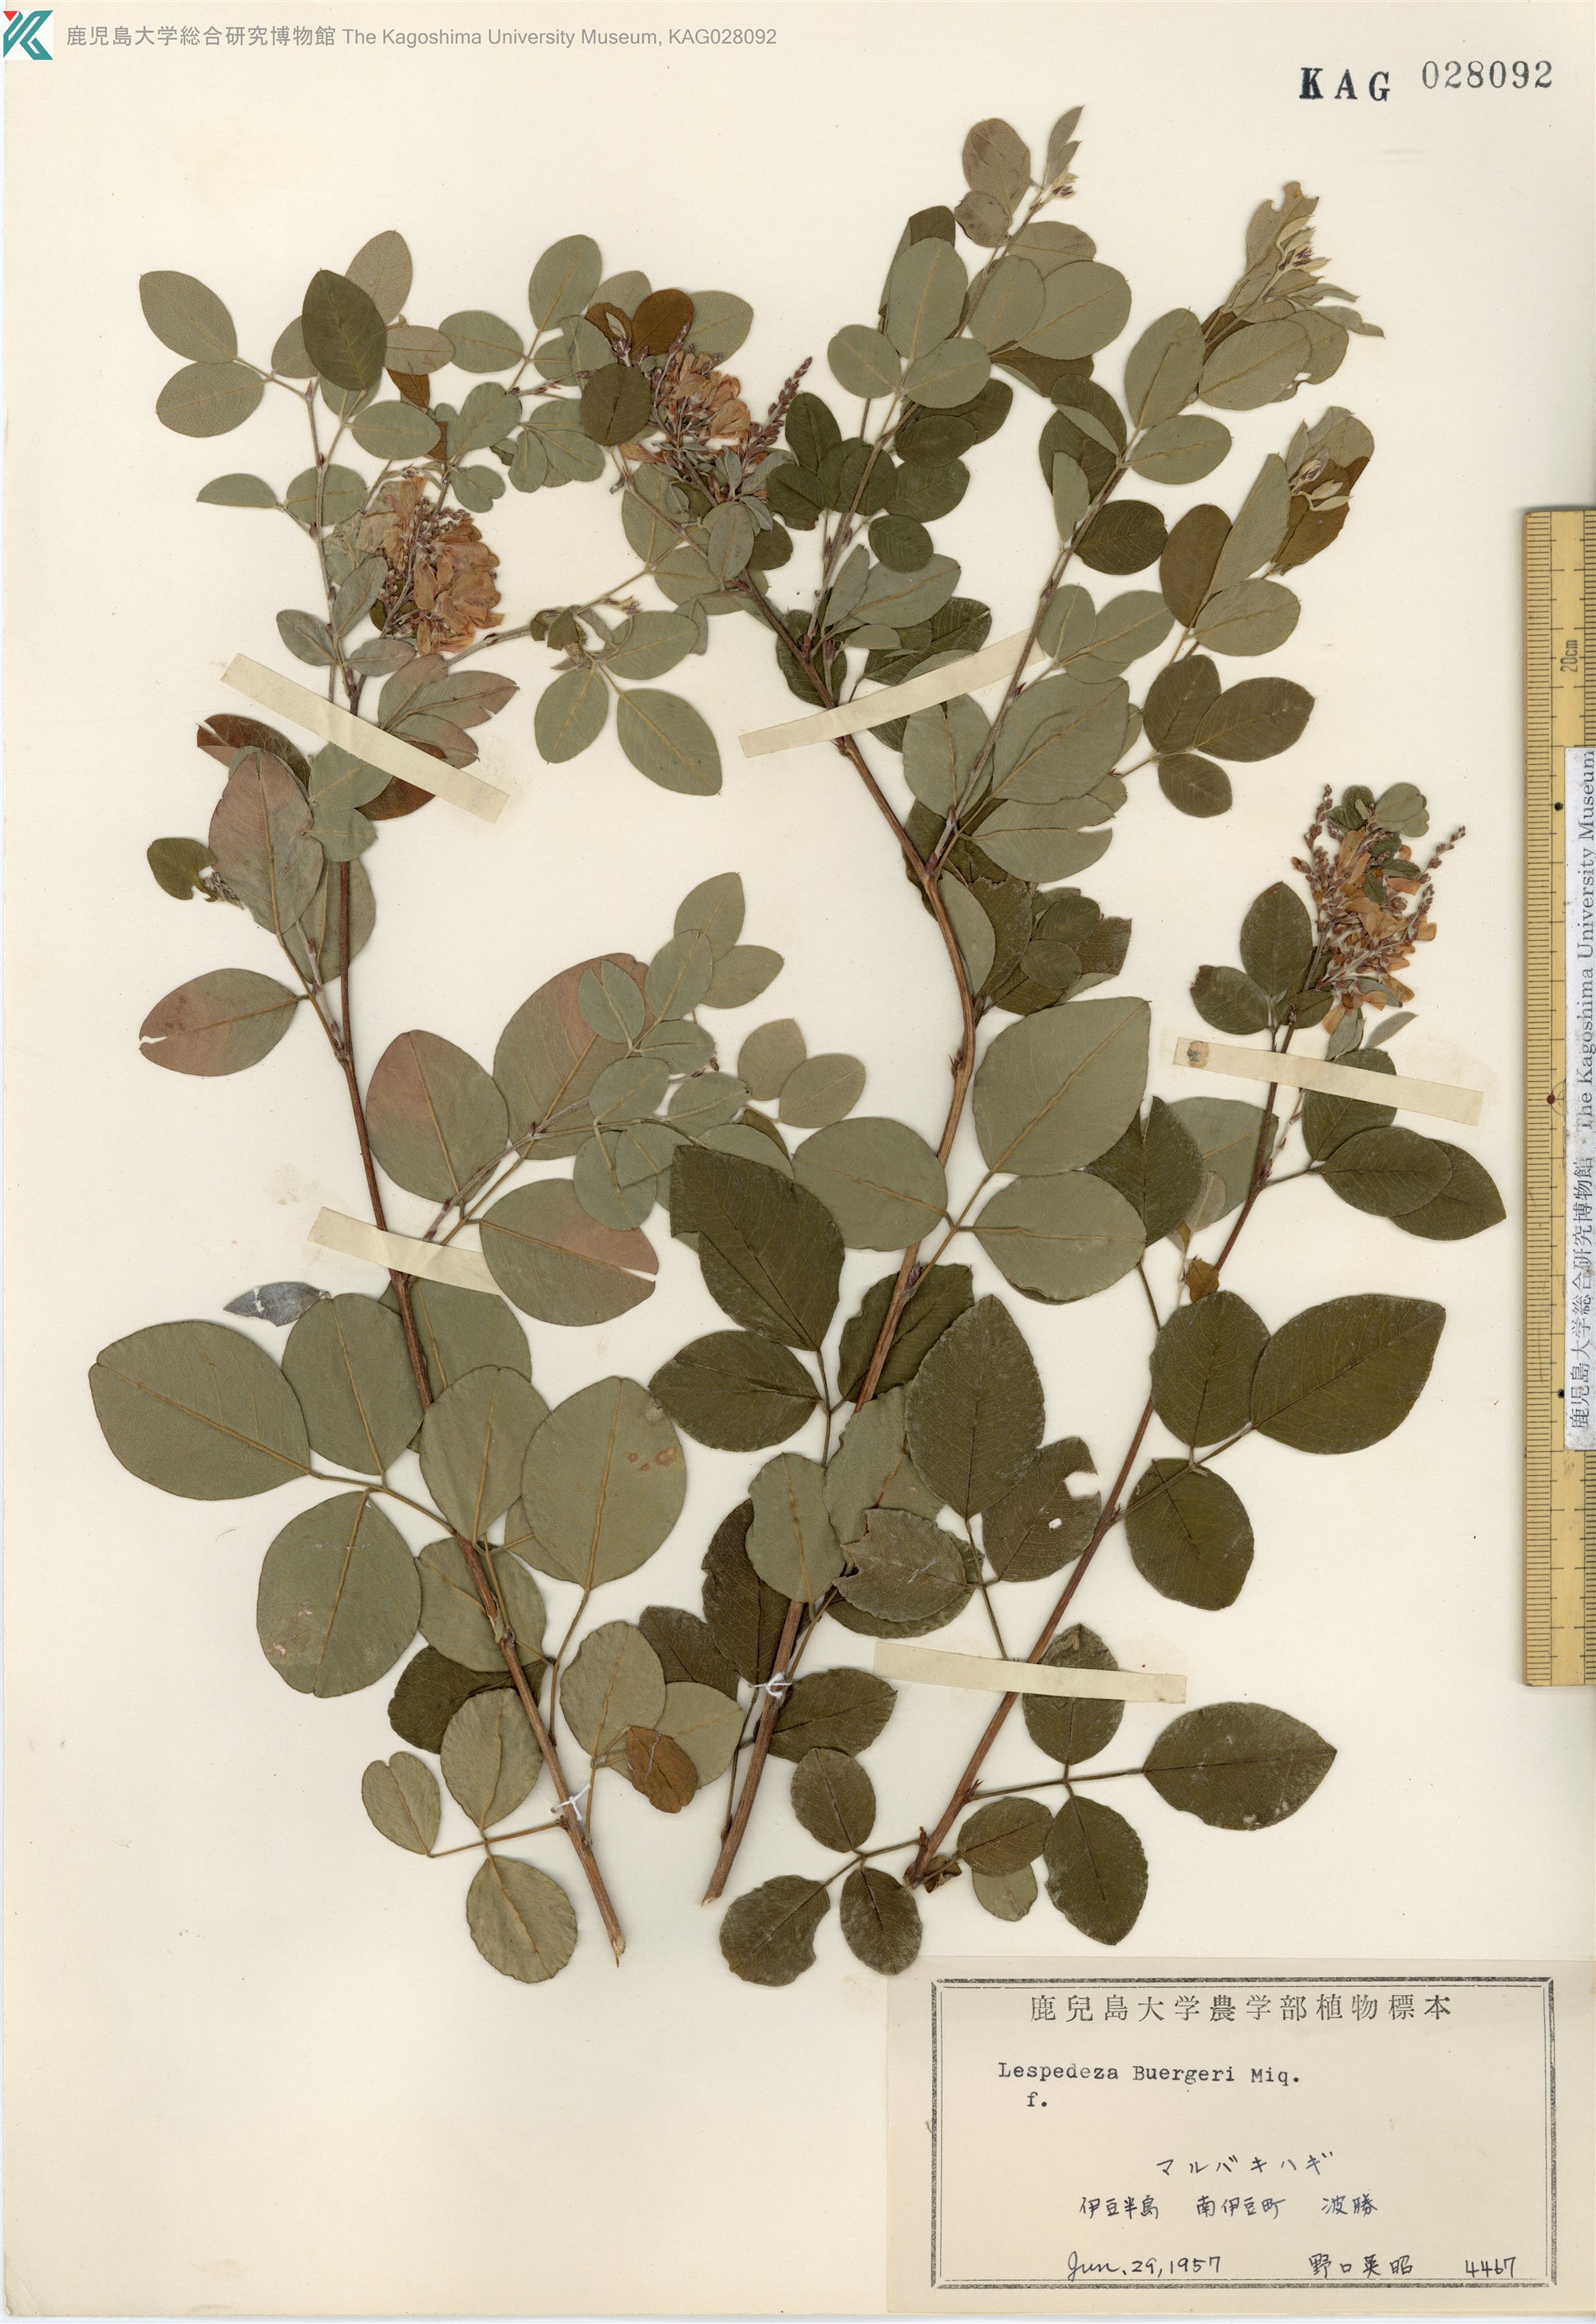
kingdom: Plantae
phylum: Tracheophyta
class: Magnoliopsida
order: Fabales
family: Fabaceae
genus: Lespedeza
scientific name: Lespedeza buergeri
